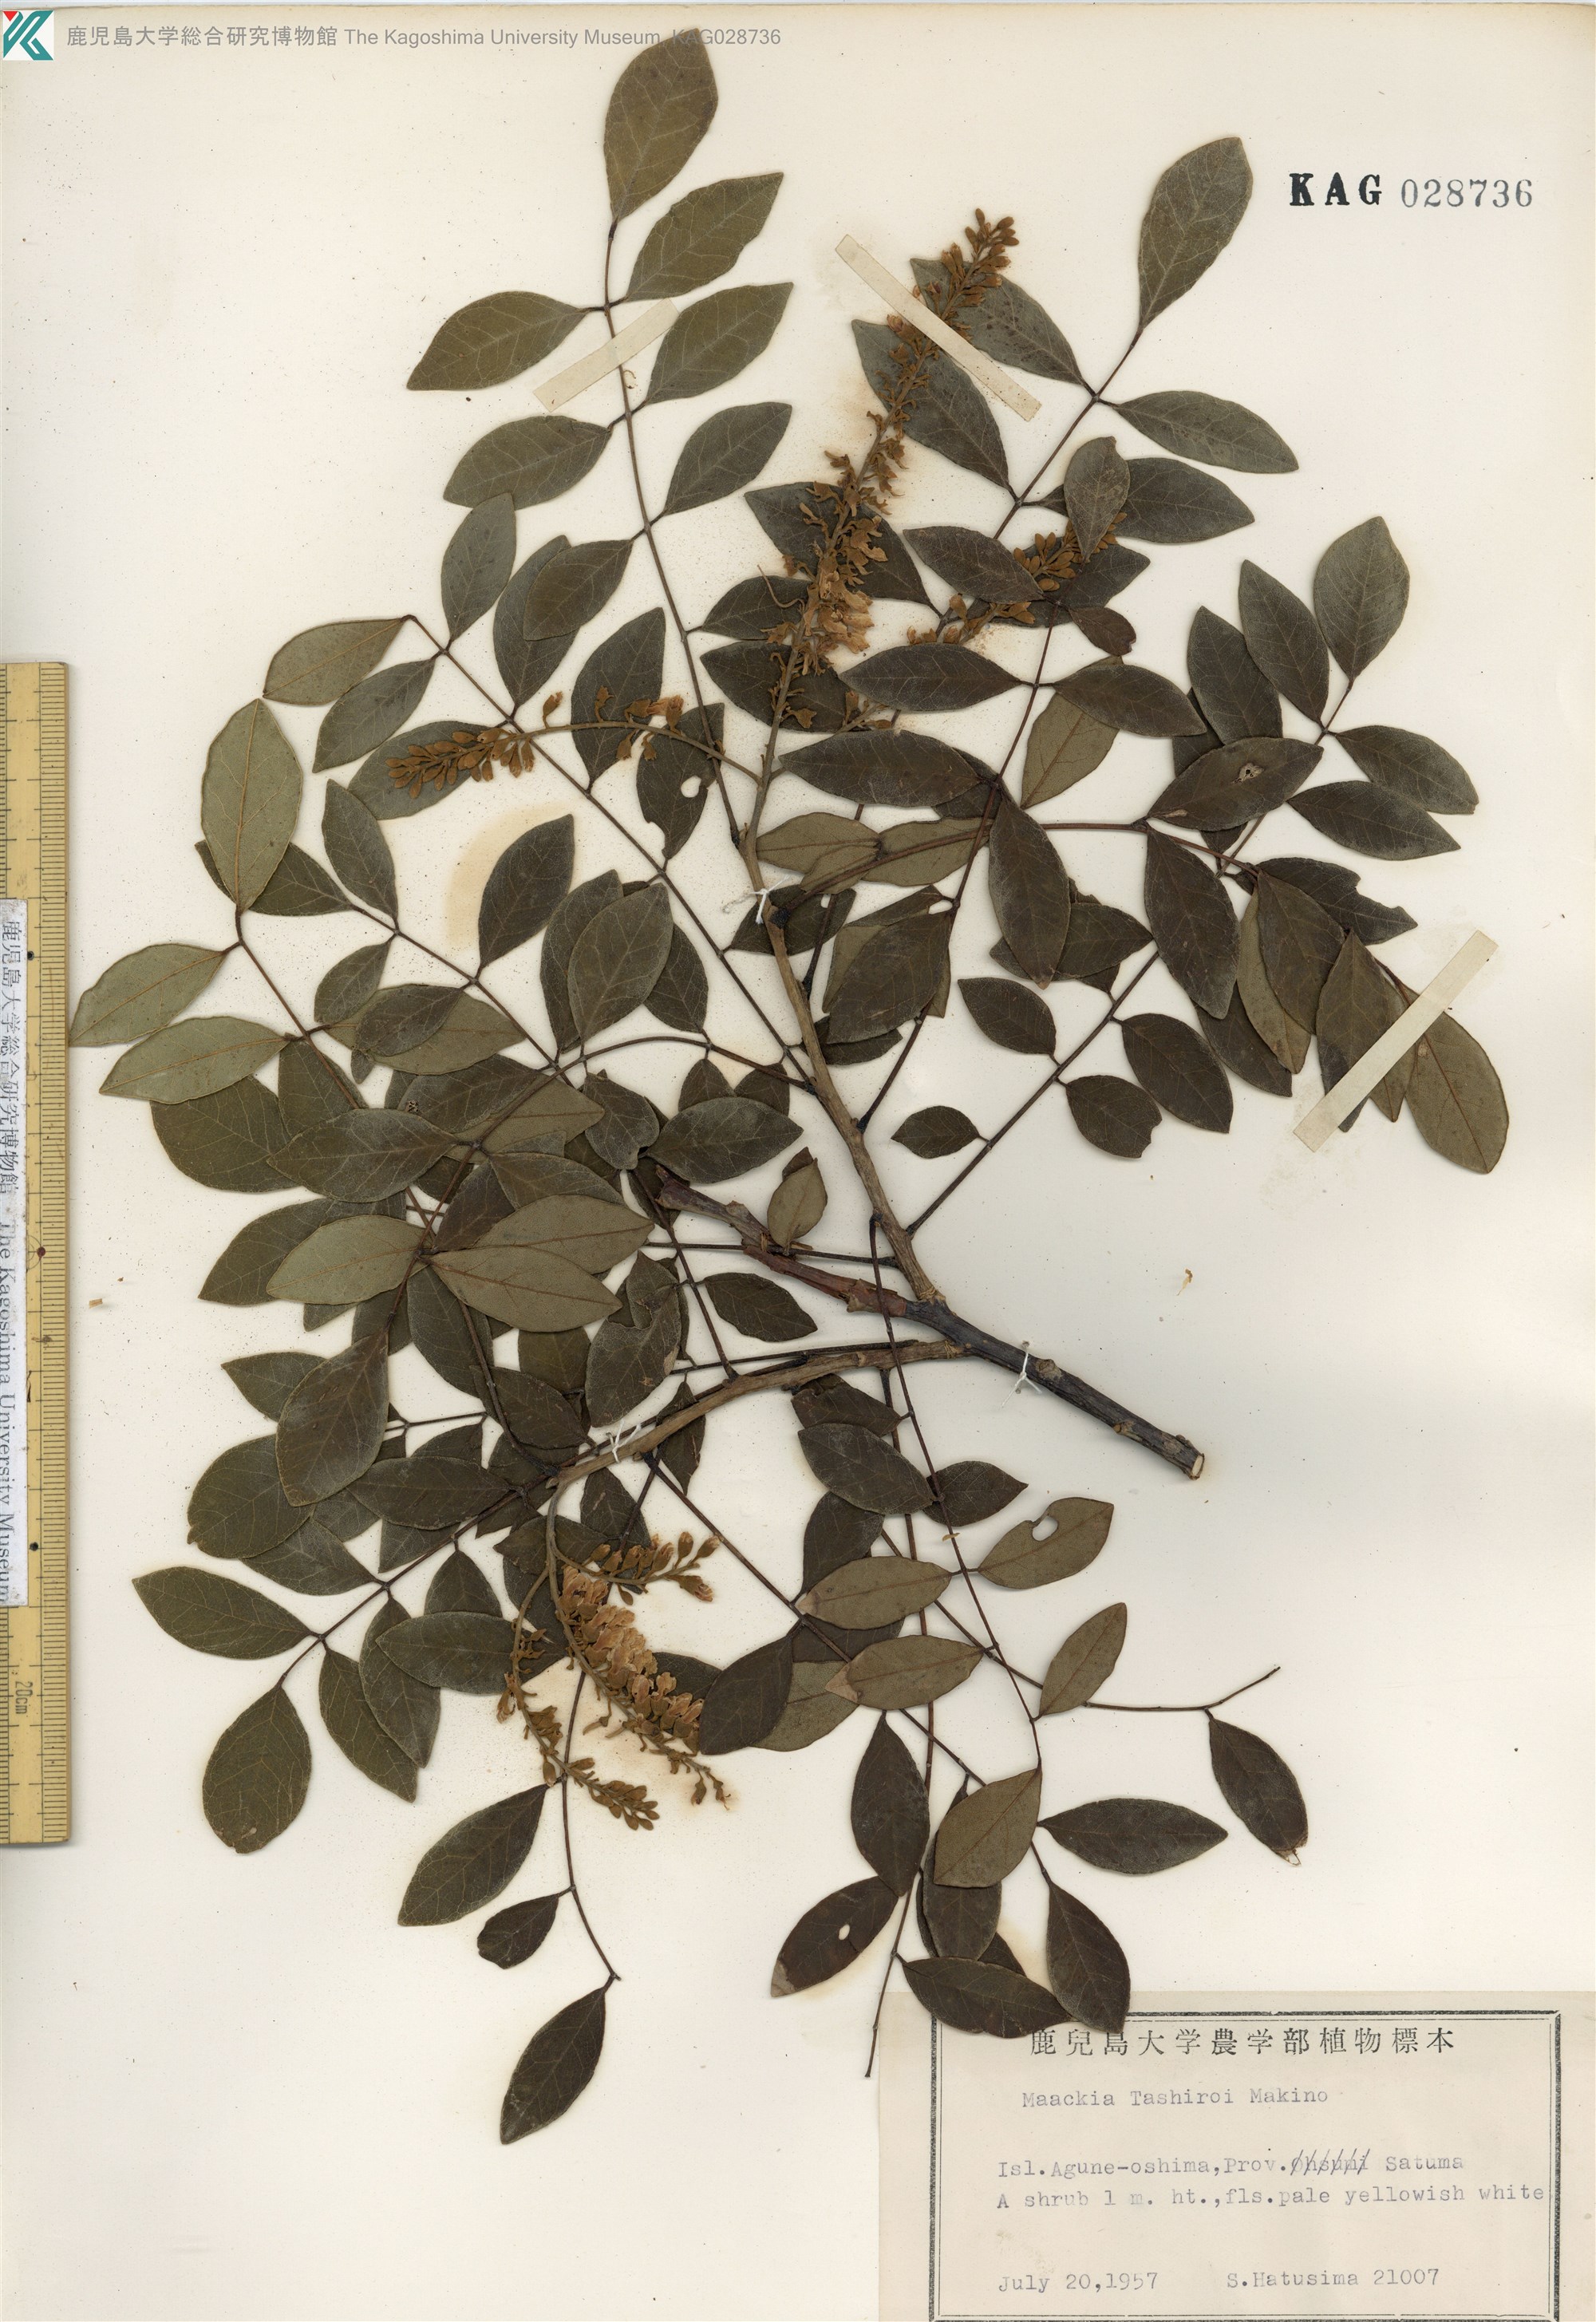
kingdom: Plantae
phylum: Tracheophyta
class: Magnoliopsida
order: Fabales
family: Fabaceae
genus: Maackia
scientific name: Maackia tashiroi
